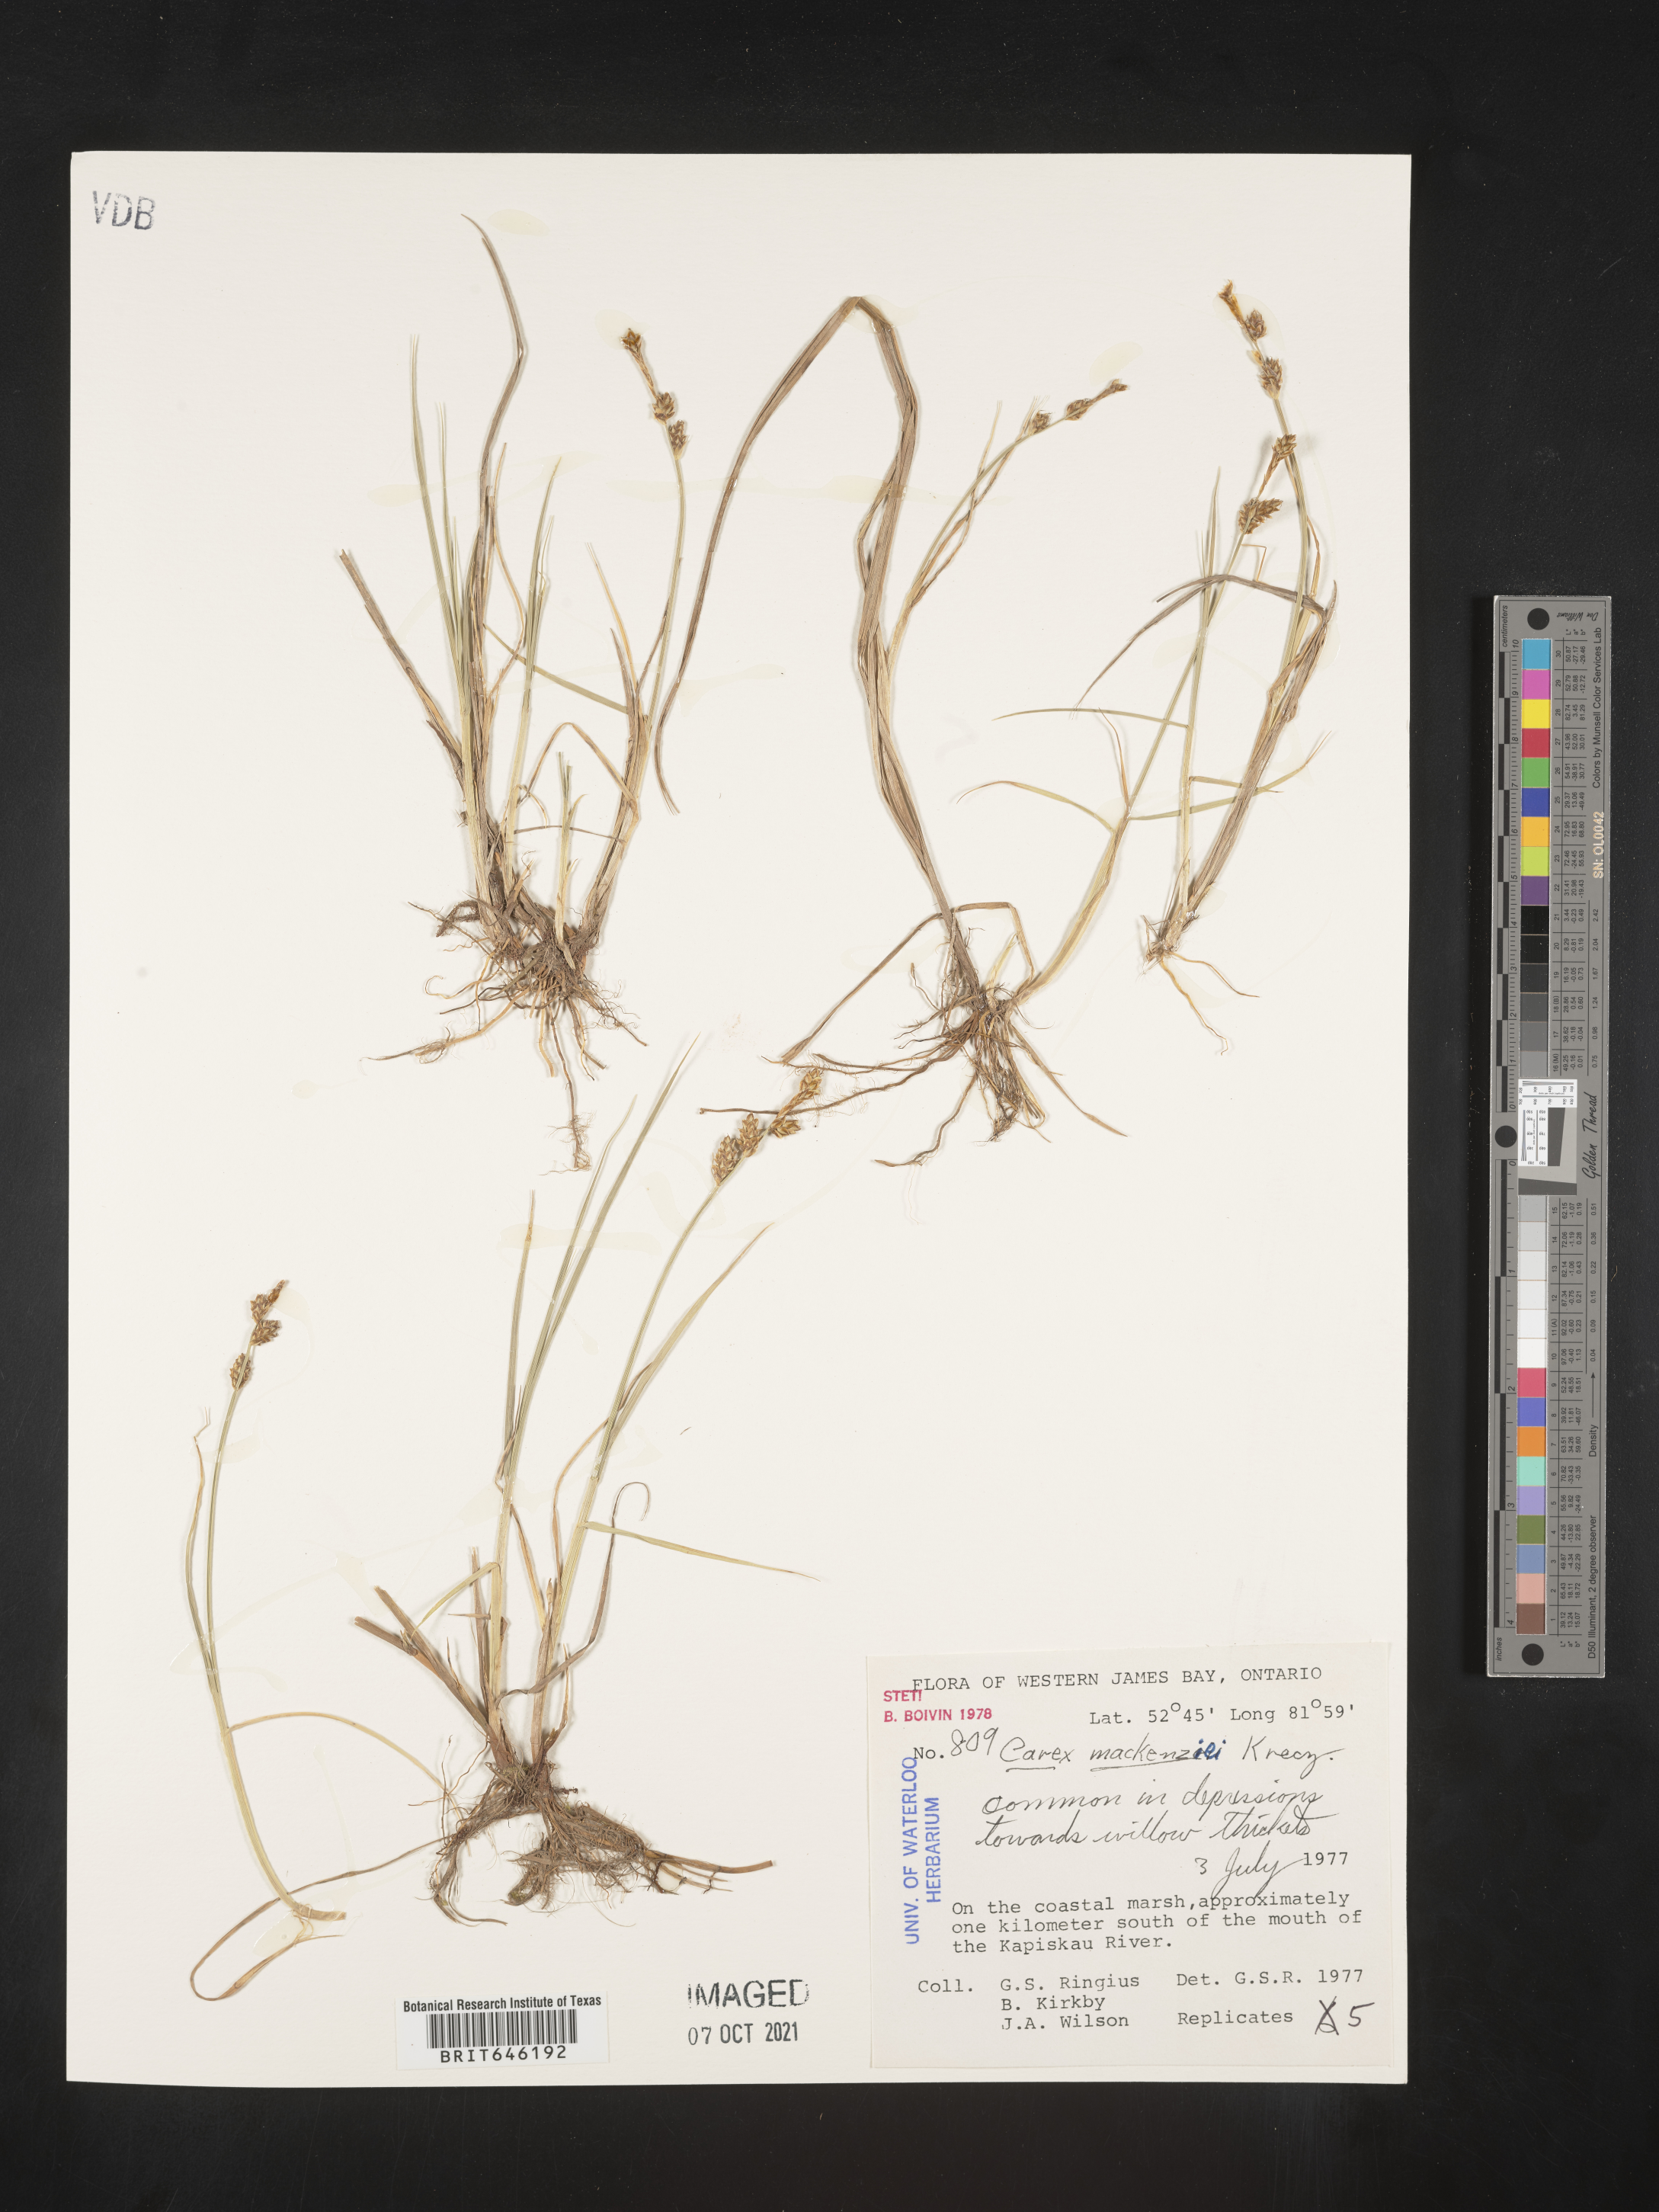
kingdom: Plantae
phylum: Tracheophyta
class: Liliopsida
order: Poales
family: Cyperaceae
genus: Carex
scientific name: Carex mackenziei
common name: Mackenzie's sedge
